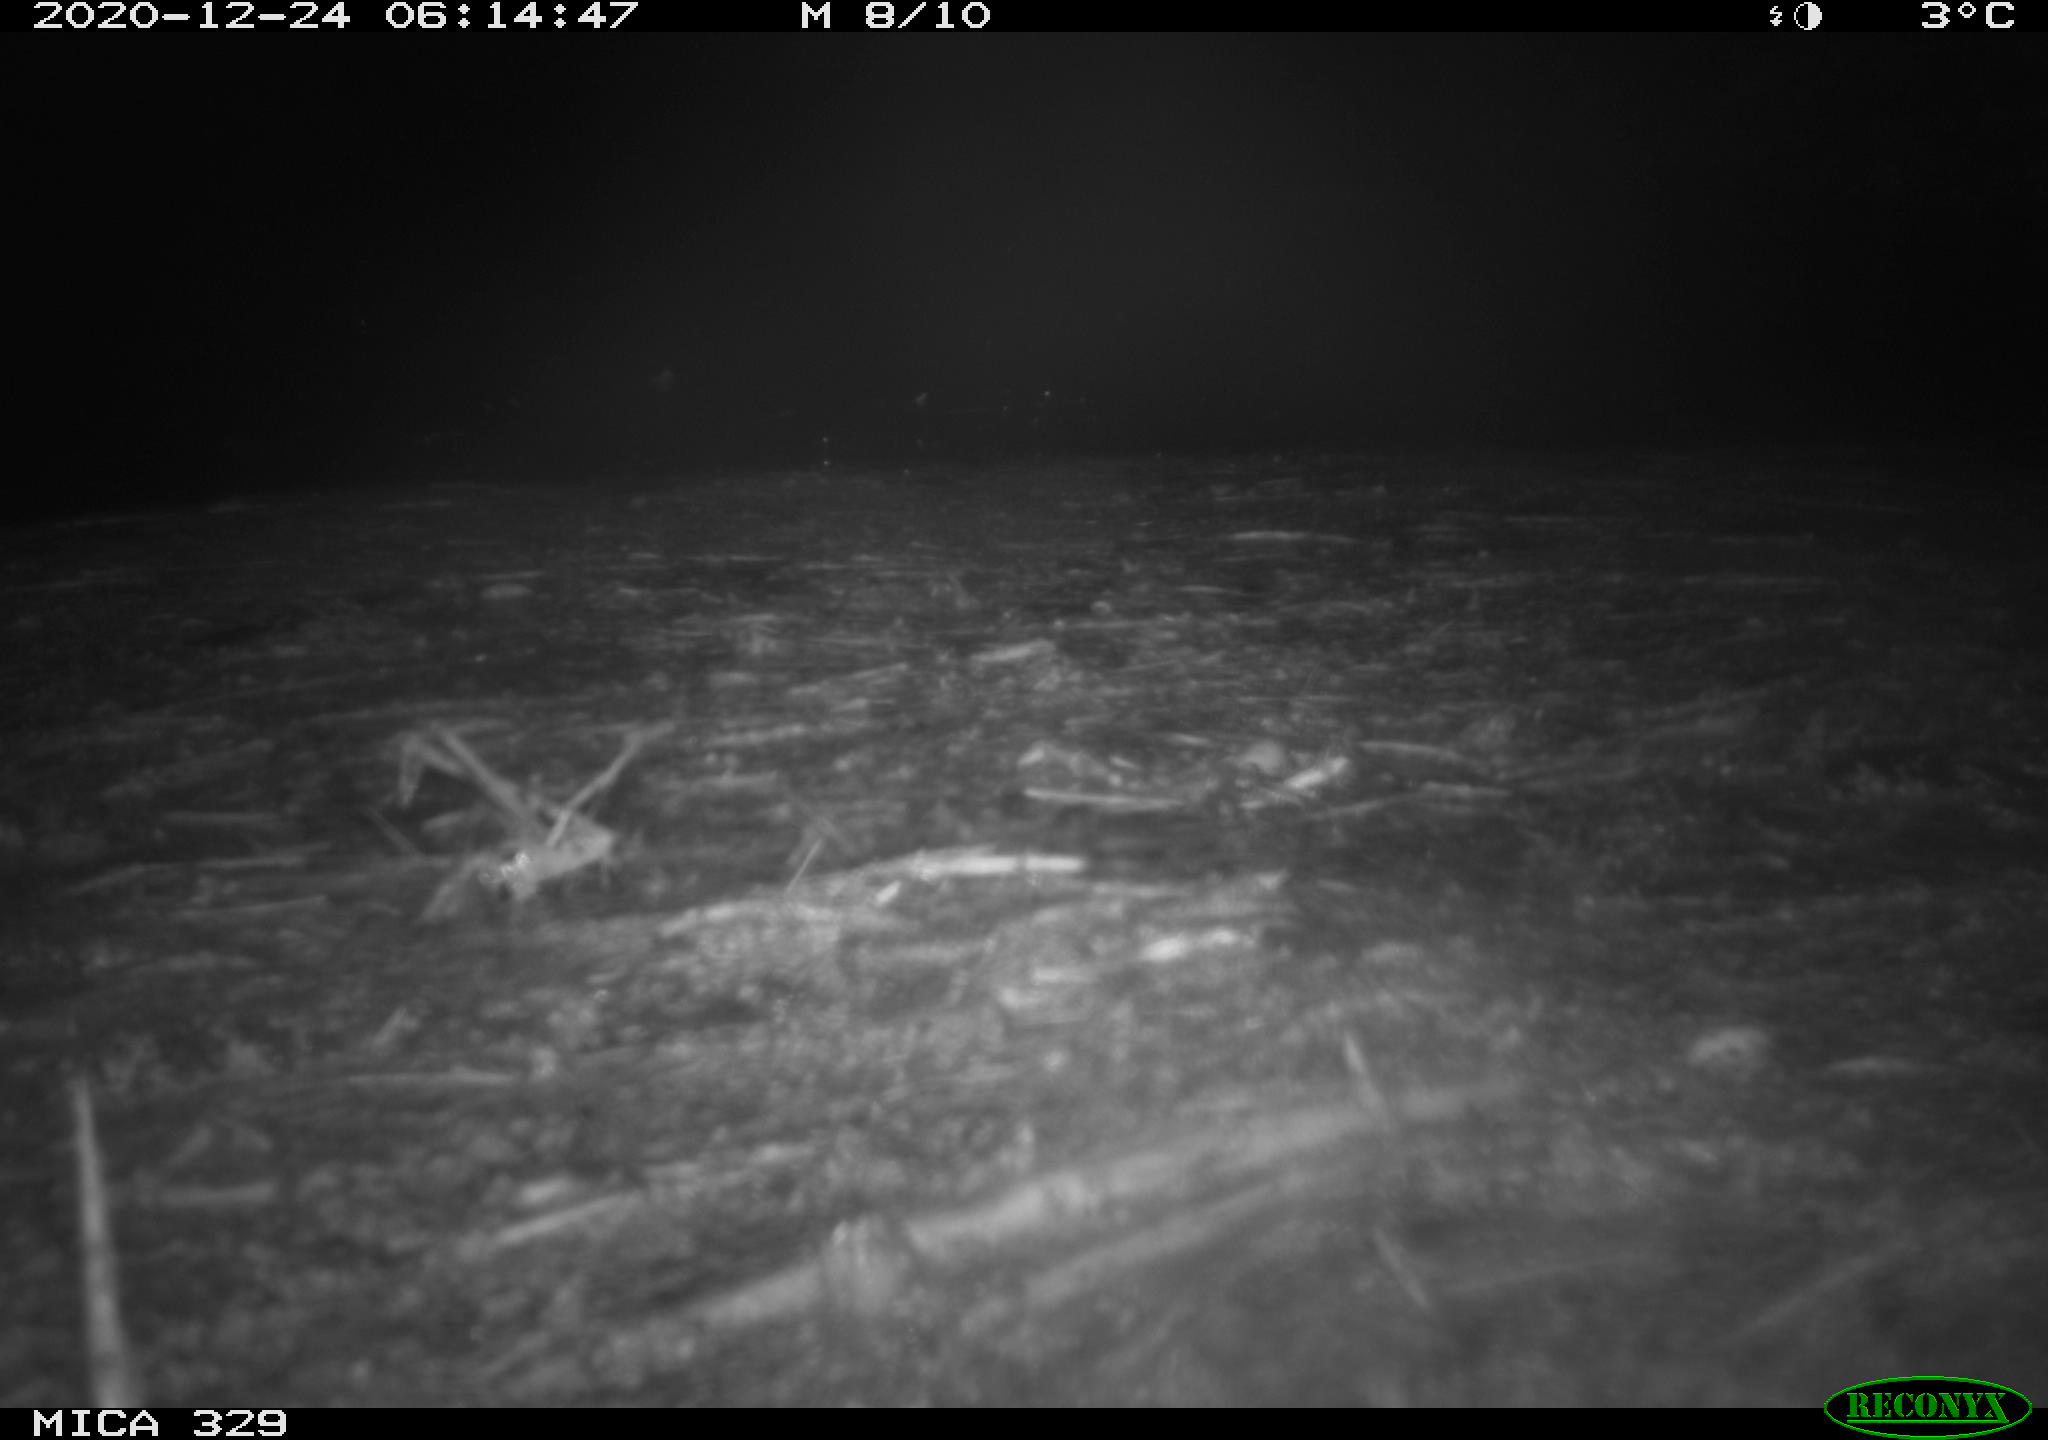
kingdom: Animalia
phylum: Chordata
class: Mammalia
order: Rodentia
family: Myocastoridae
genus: Myocastor
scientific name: Myocastor coypus
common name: Coypu
